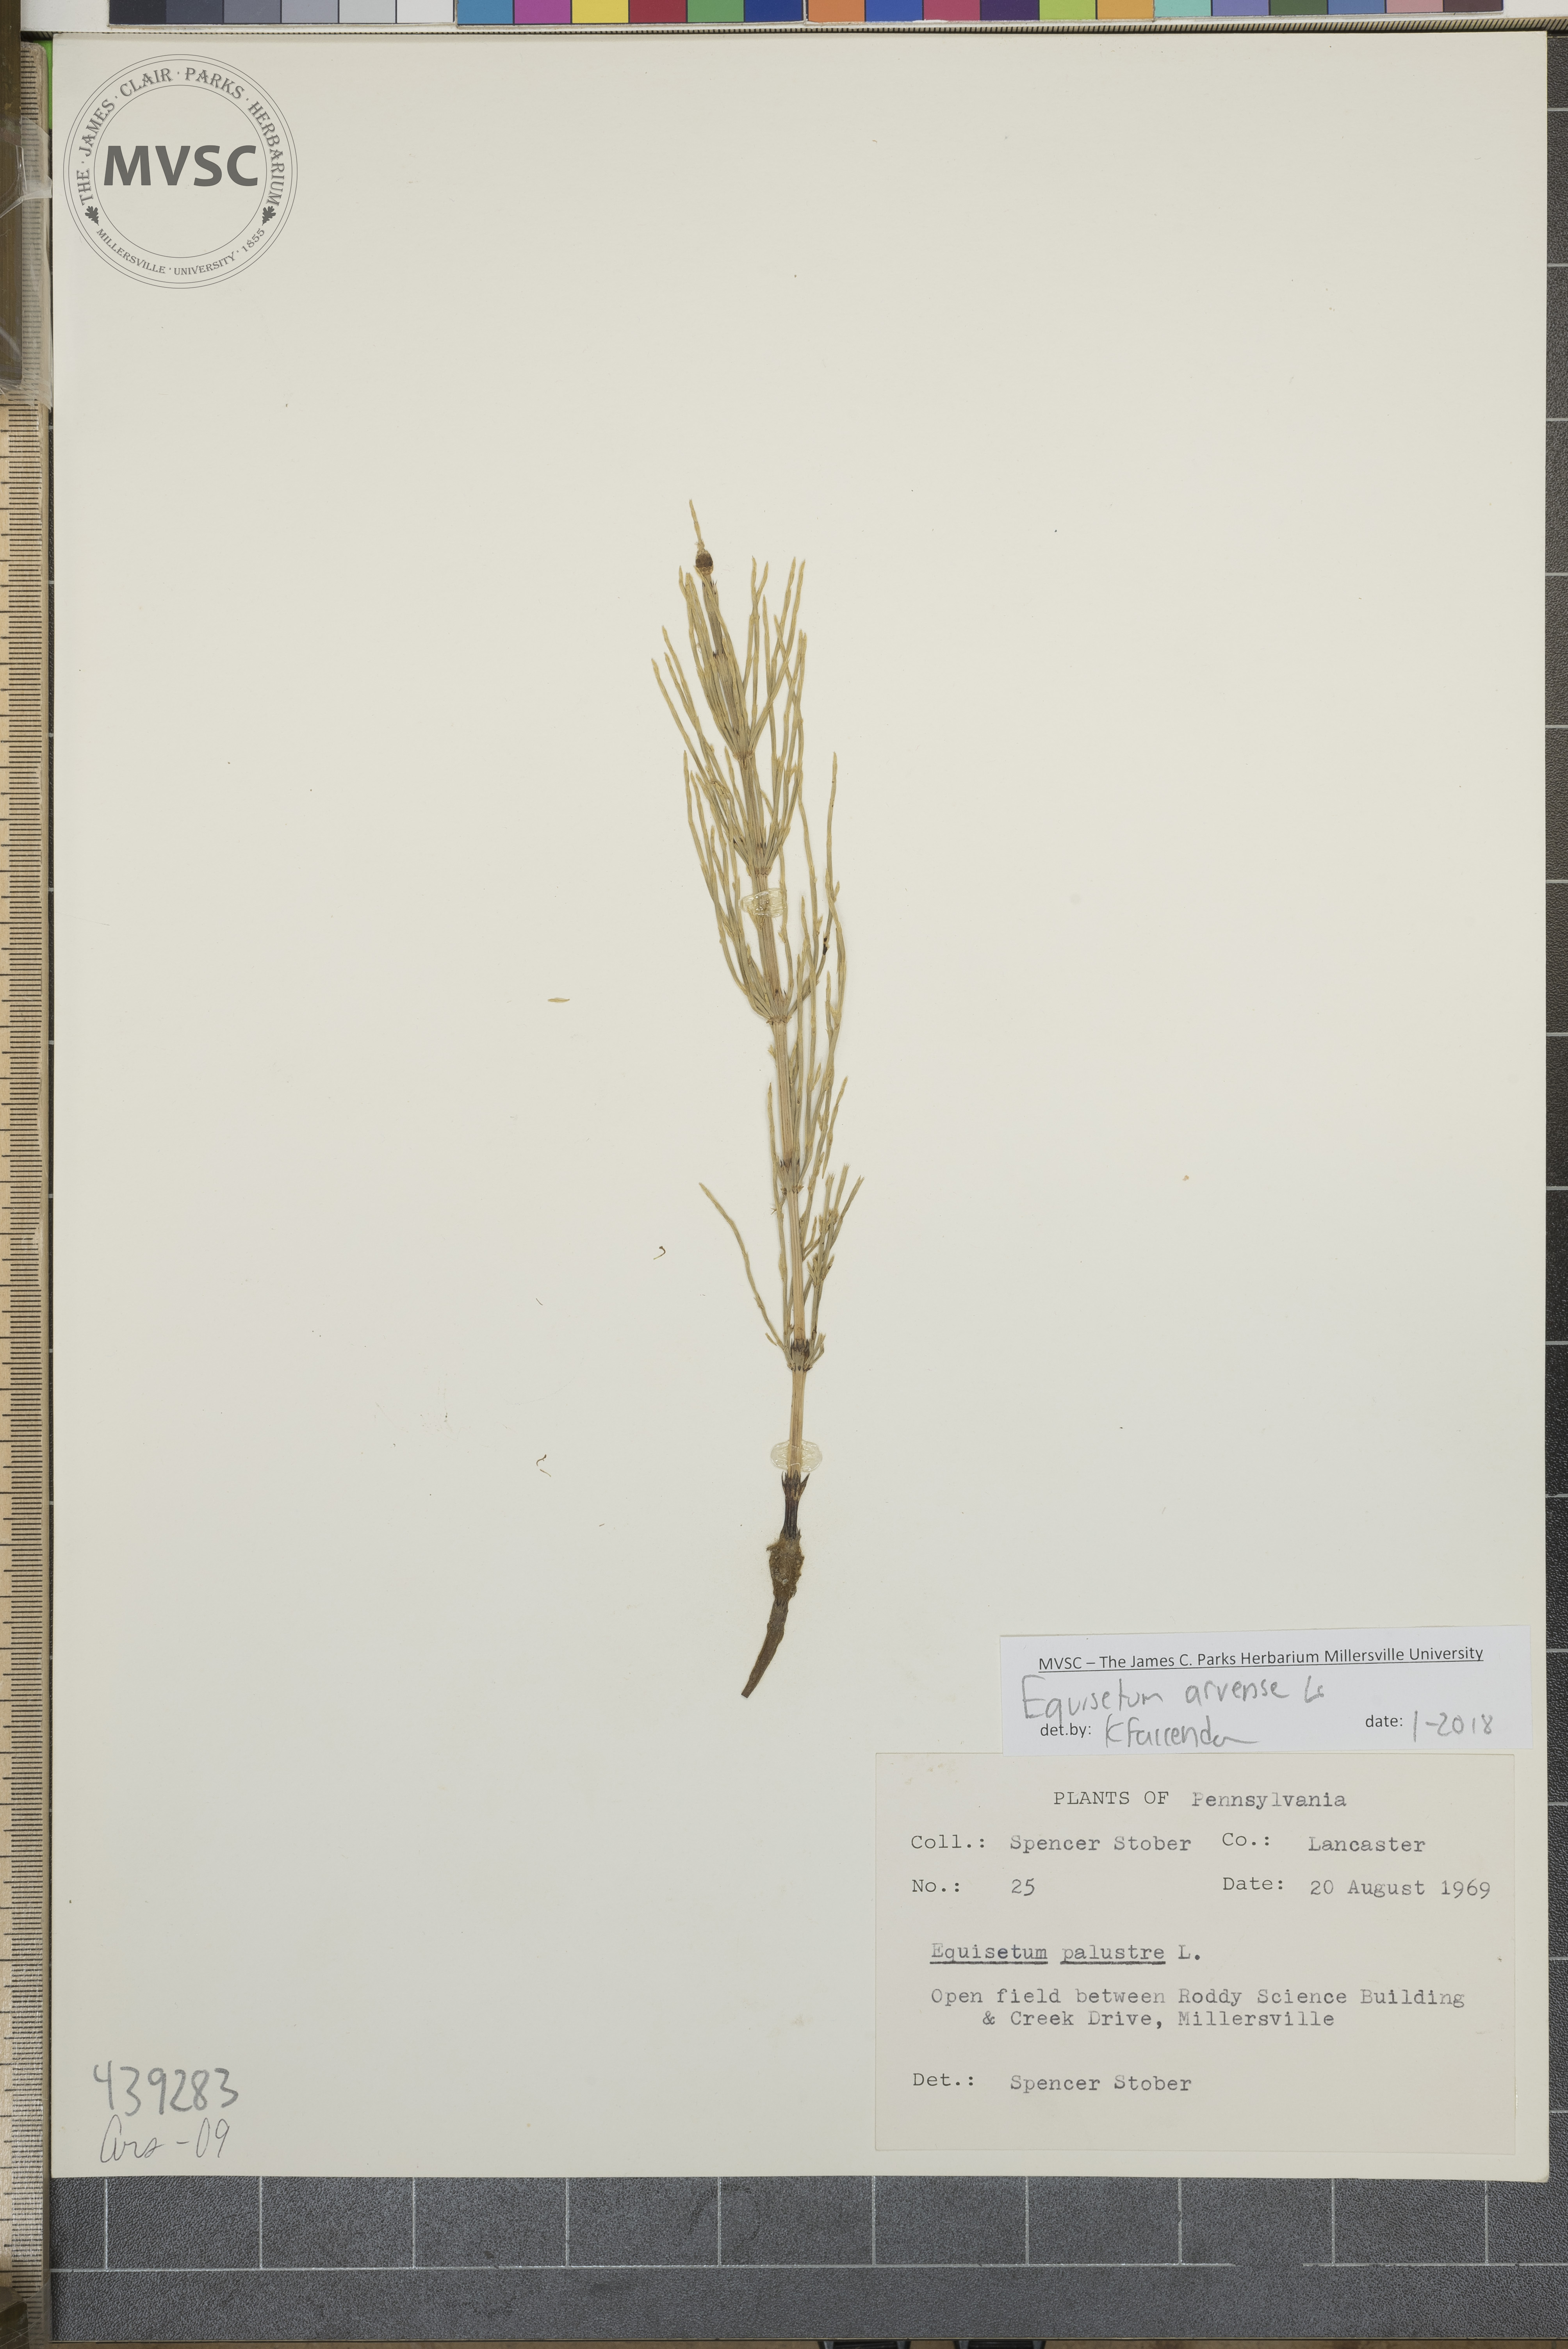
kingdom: Plantae
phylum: Tracheophyta
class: Polypodiopsida
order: Equisetales
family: Equisetaceae
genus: Equisetum
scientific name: Equisetum arvense
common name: Horsetail
